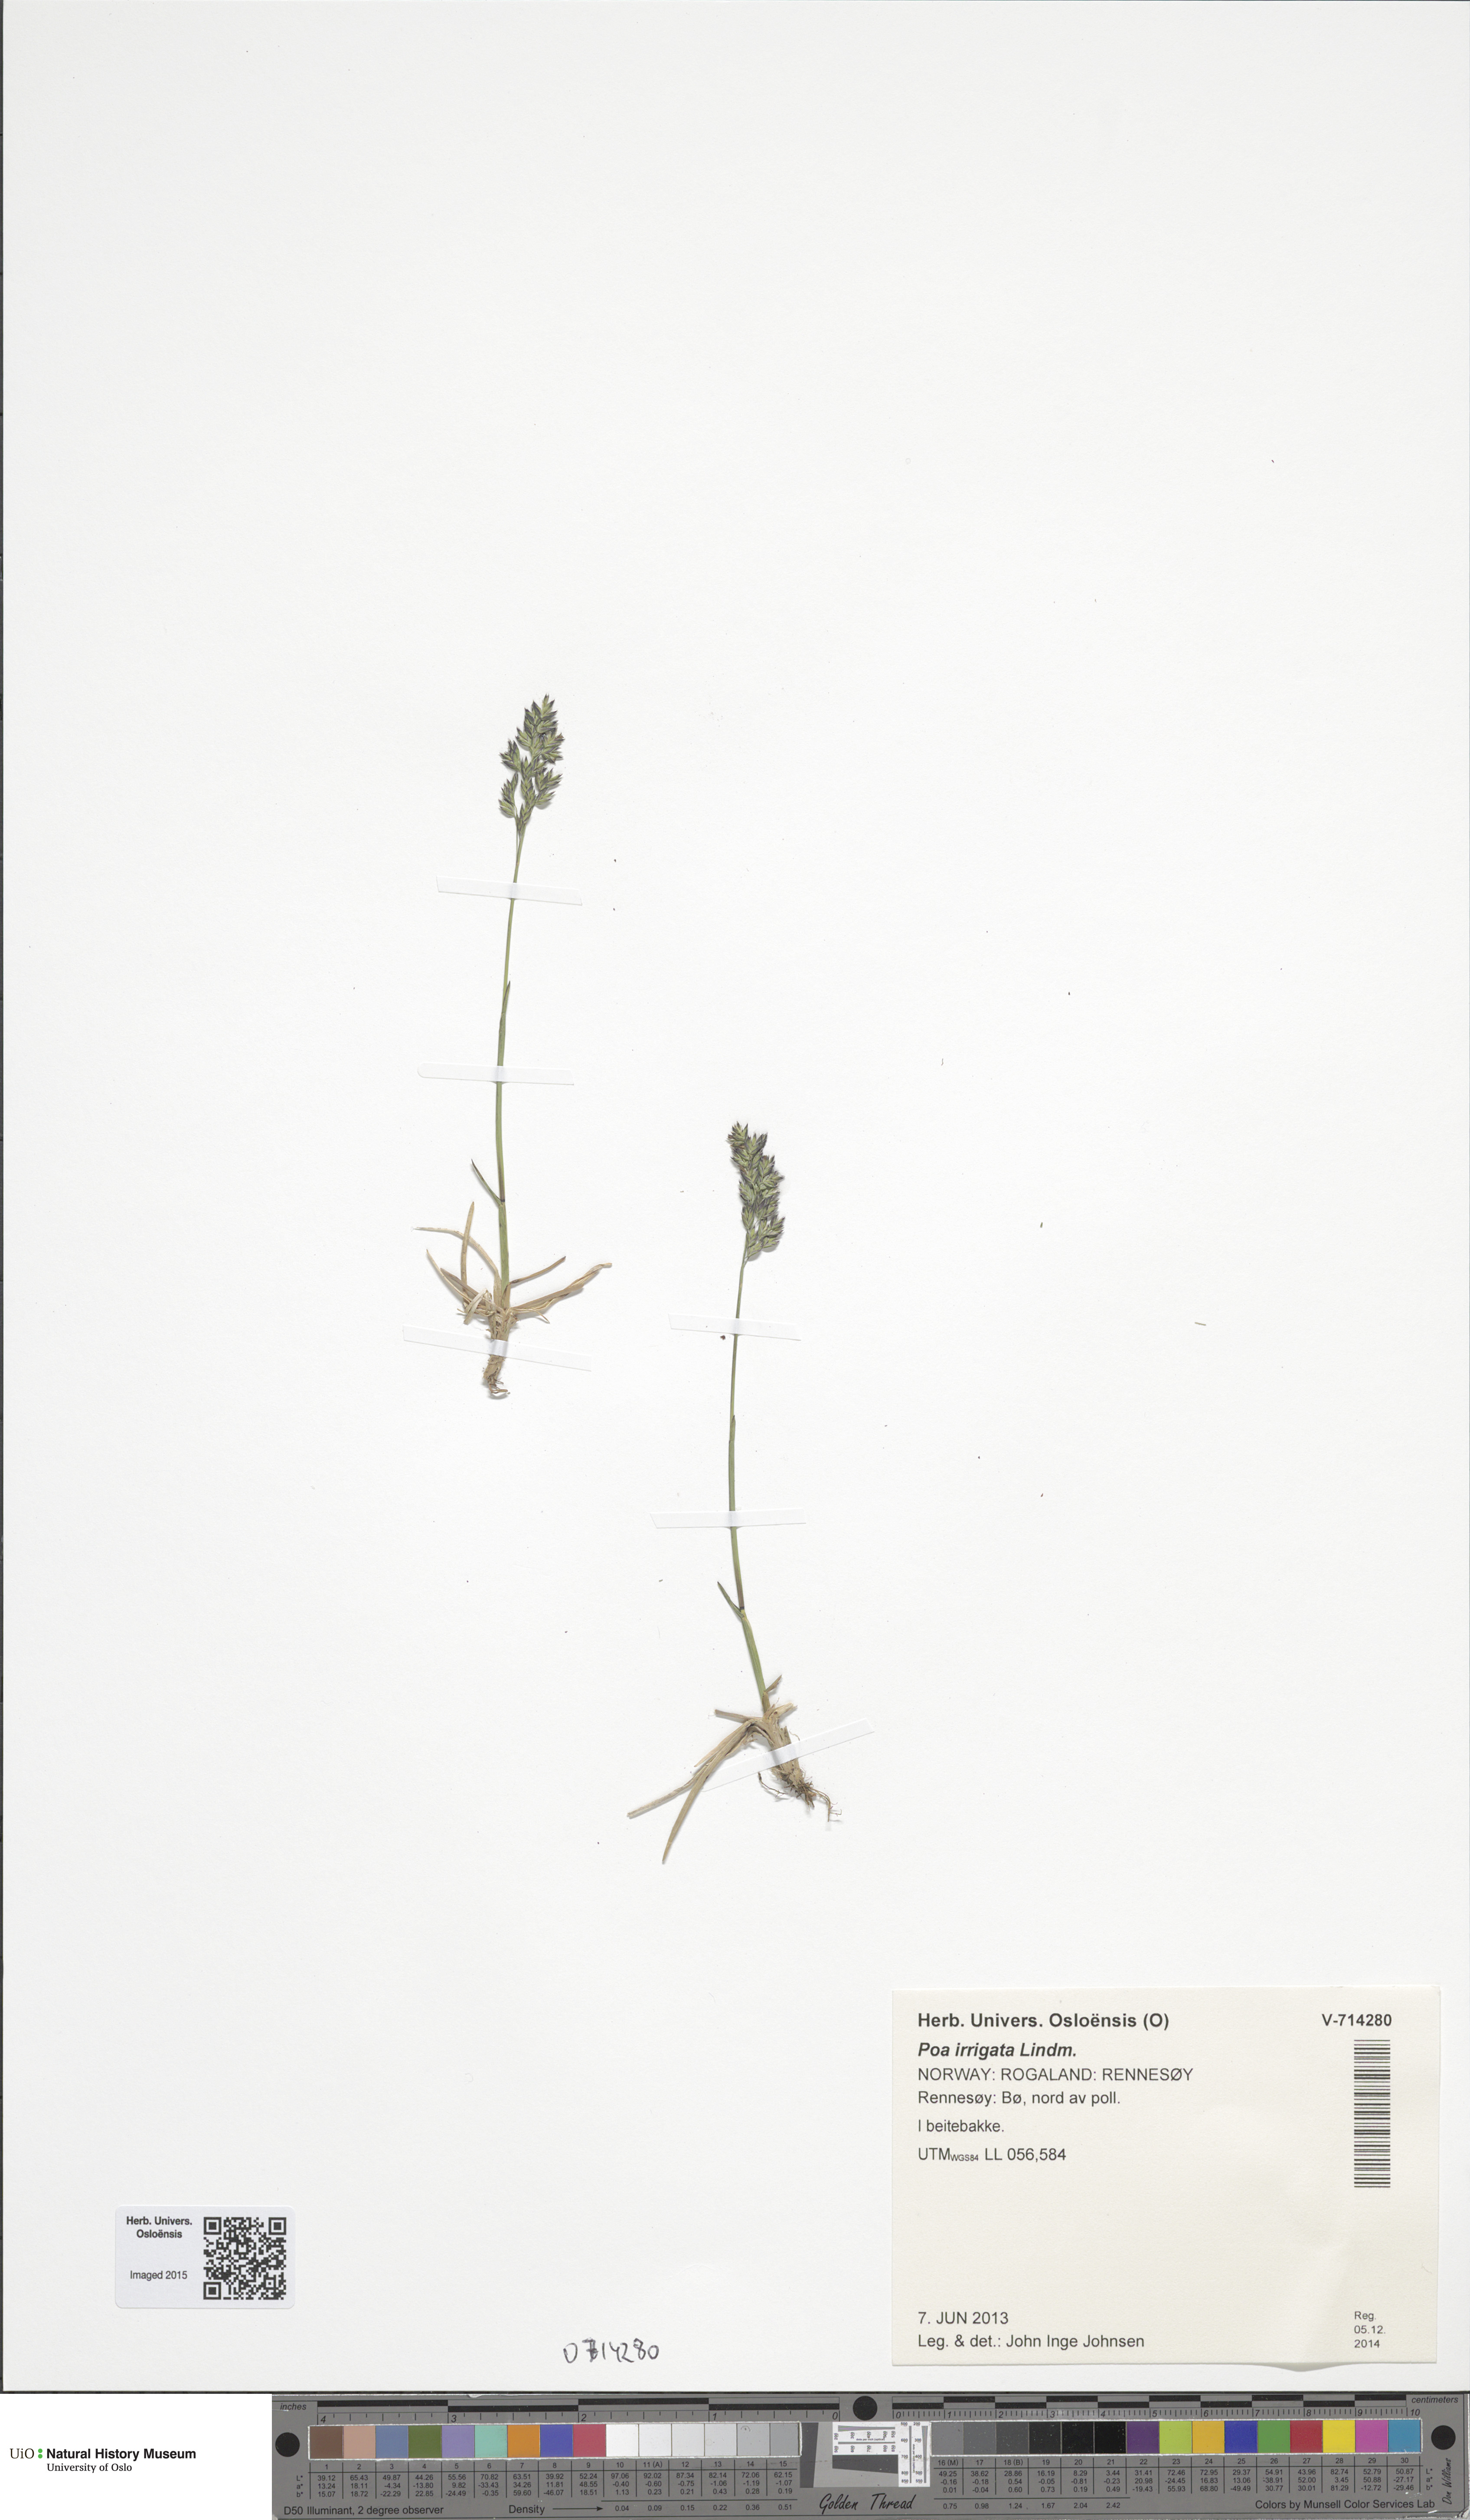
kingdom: Plantae
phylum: Tracheophyta
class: Liliopsida
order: Poales
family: Poaceae
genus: Poa
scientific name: Poa humilis
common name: Spreading meadow-grass
